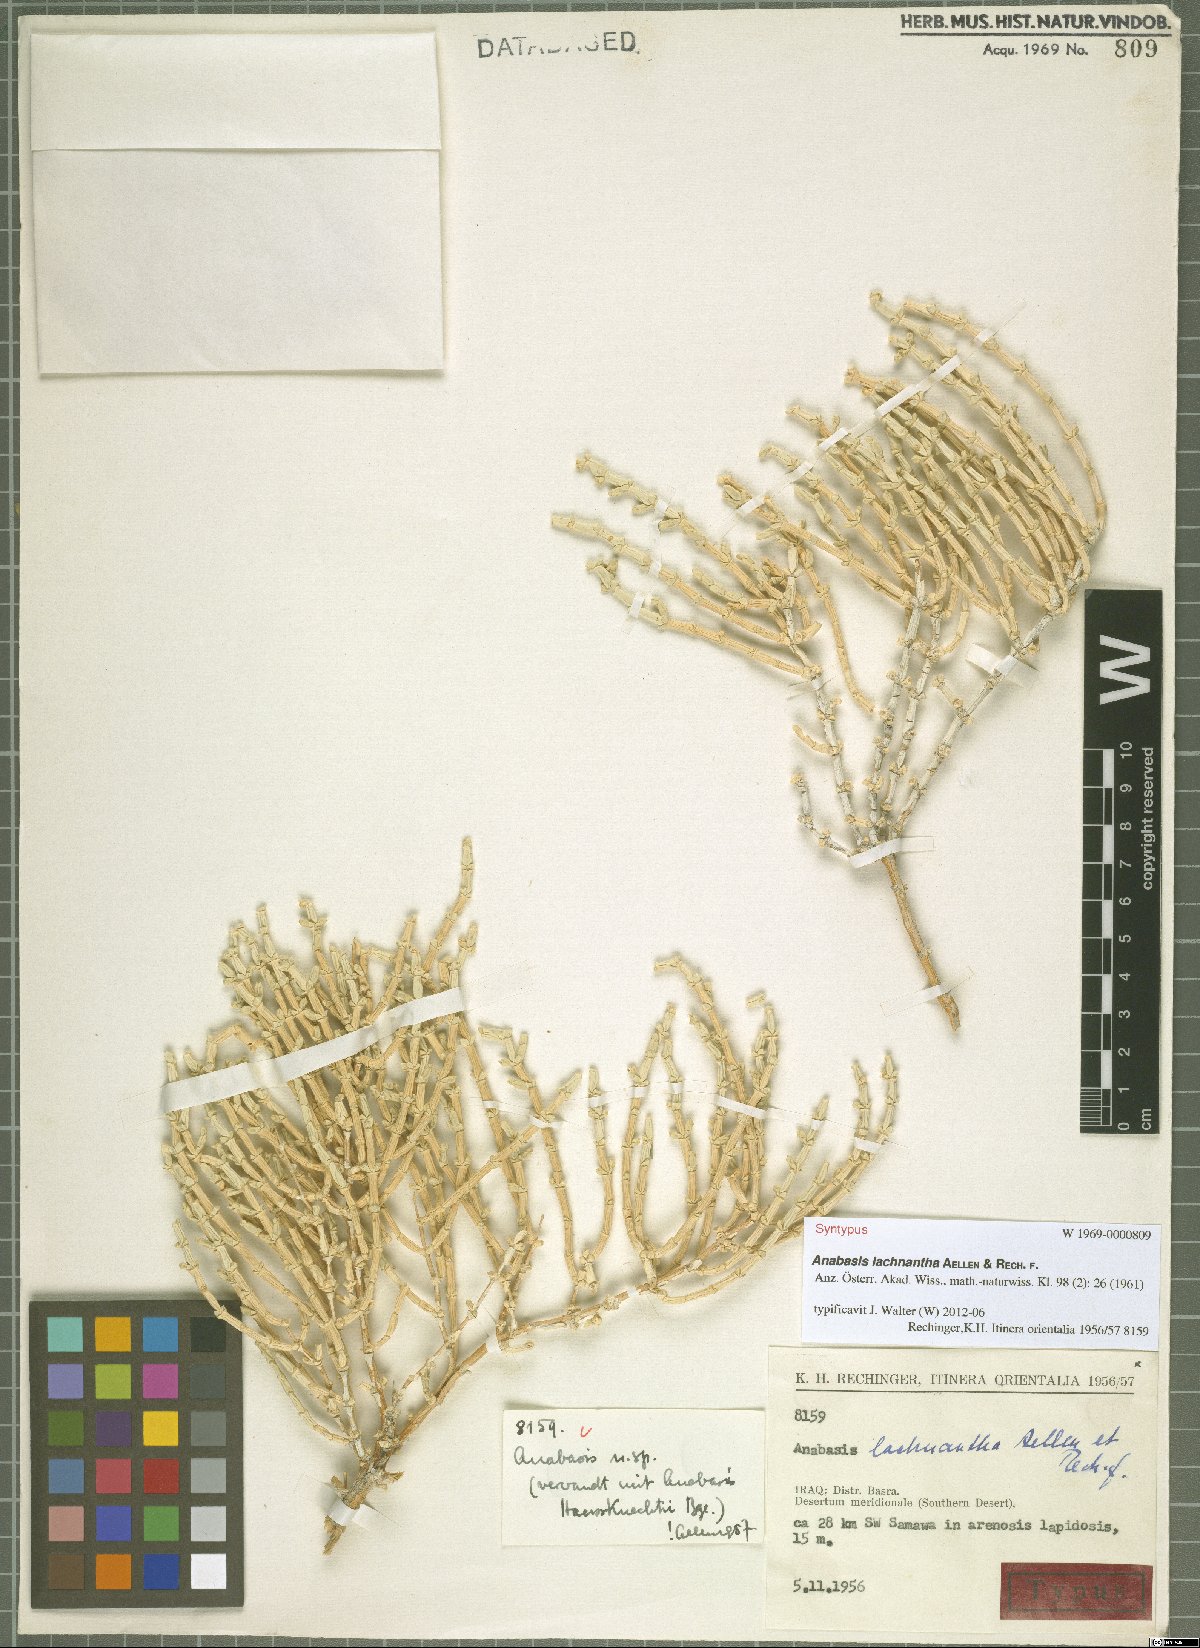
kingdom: Plantae
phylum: Tracheophyta
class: Magnoliopsida
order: Caryophyllales
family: Amaranthaceae
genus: Anabasis
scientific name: Anabasis lachnantha
